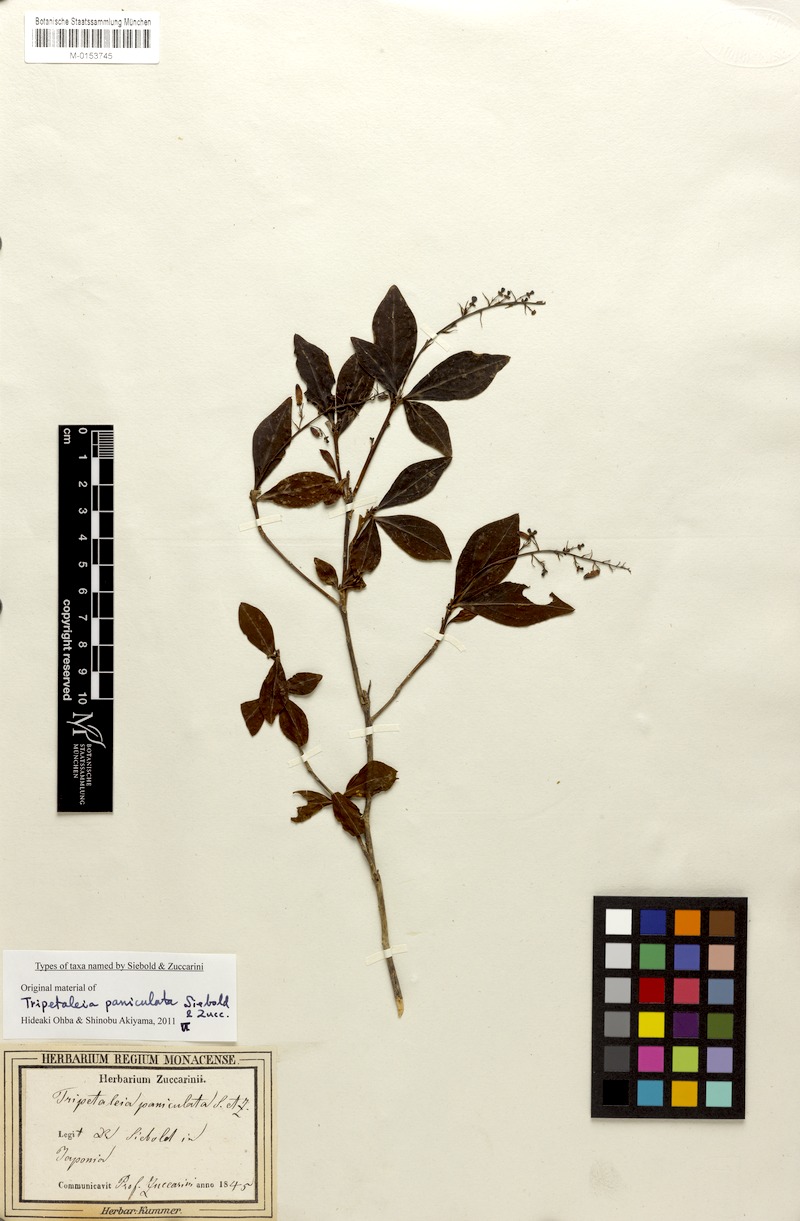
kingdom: Plantae
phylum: Tracheophyta
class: Magnoliopsida
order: Ericales
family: Ericaceae
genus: Elliottia
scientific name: Elliottia paniculata
